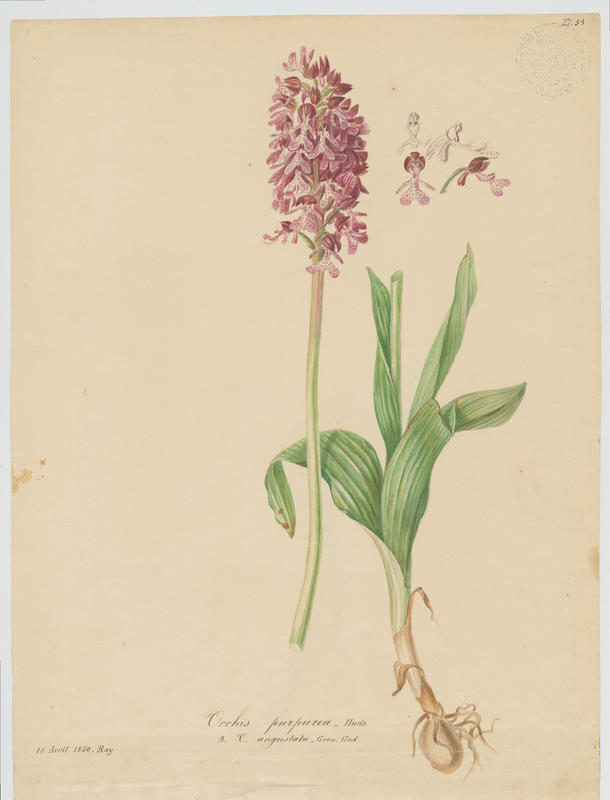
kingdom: Plantae
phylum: Tracheophyta
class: Liliopsida
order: Asparagales
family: Orchidaceae
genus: Orchis
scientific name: Orchis purpurea
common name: Lady orchid
